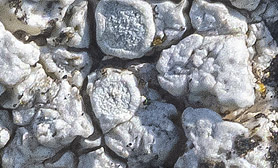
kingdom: Fungi
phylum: Ascomycota
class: Lecanoromycetes
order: Lecanorales
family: Lecanoraceae
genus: Glaucomaria
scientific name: Glaucomaria rupicola
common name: stengærde-kantskivelav
